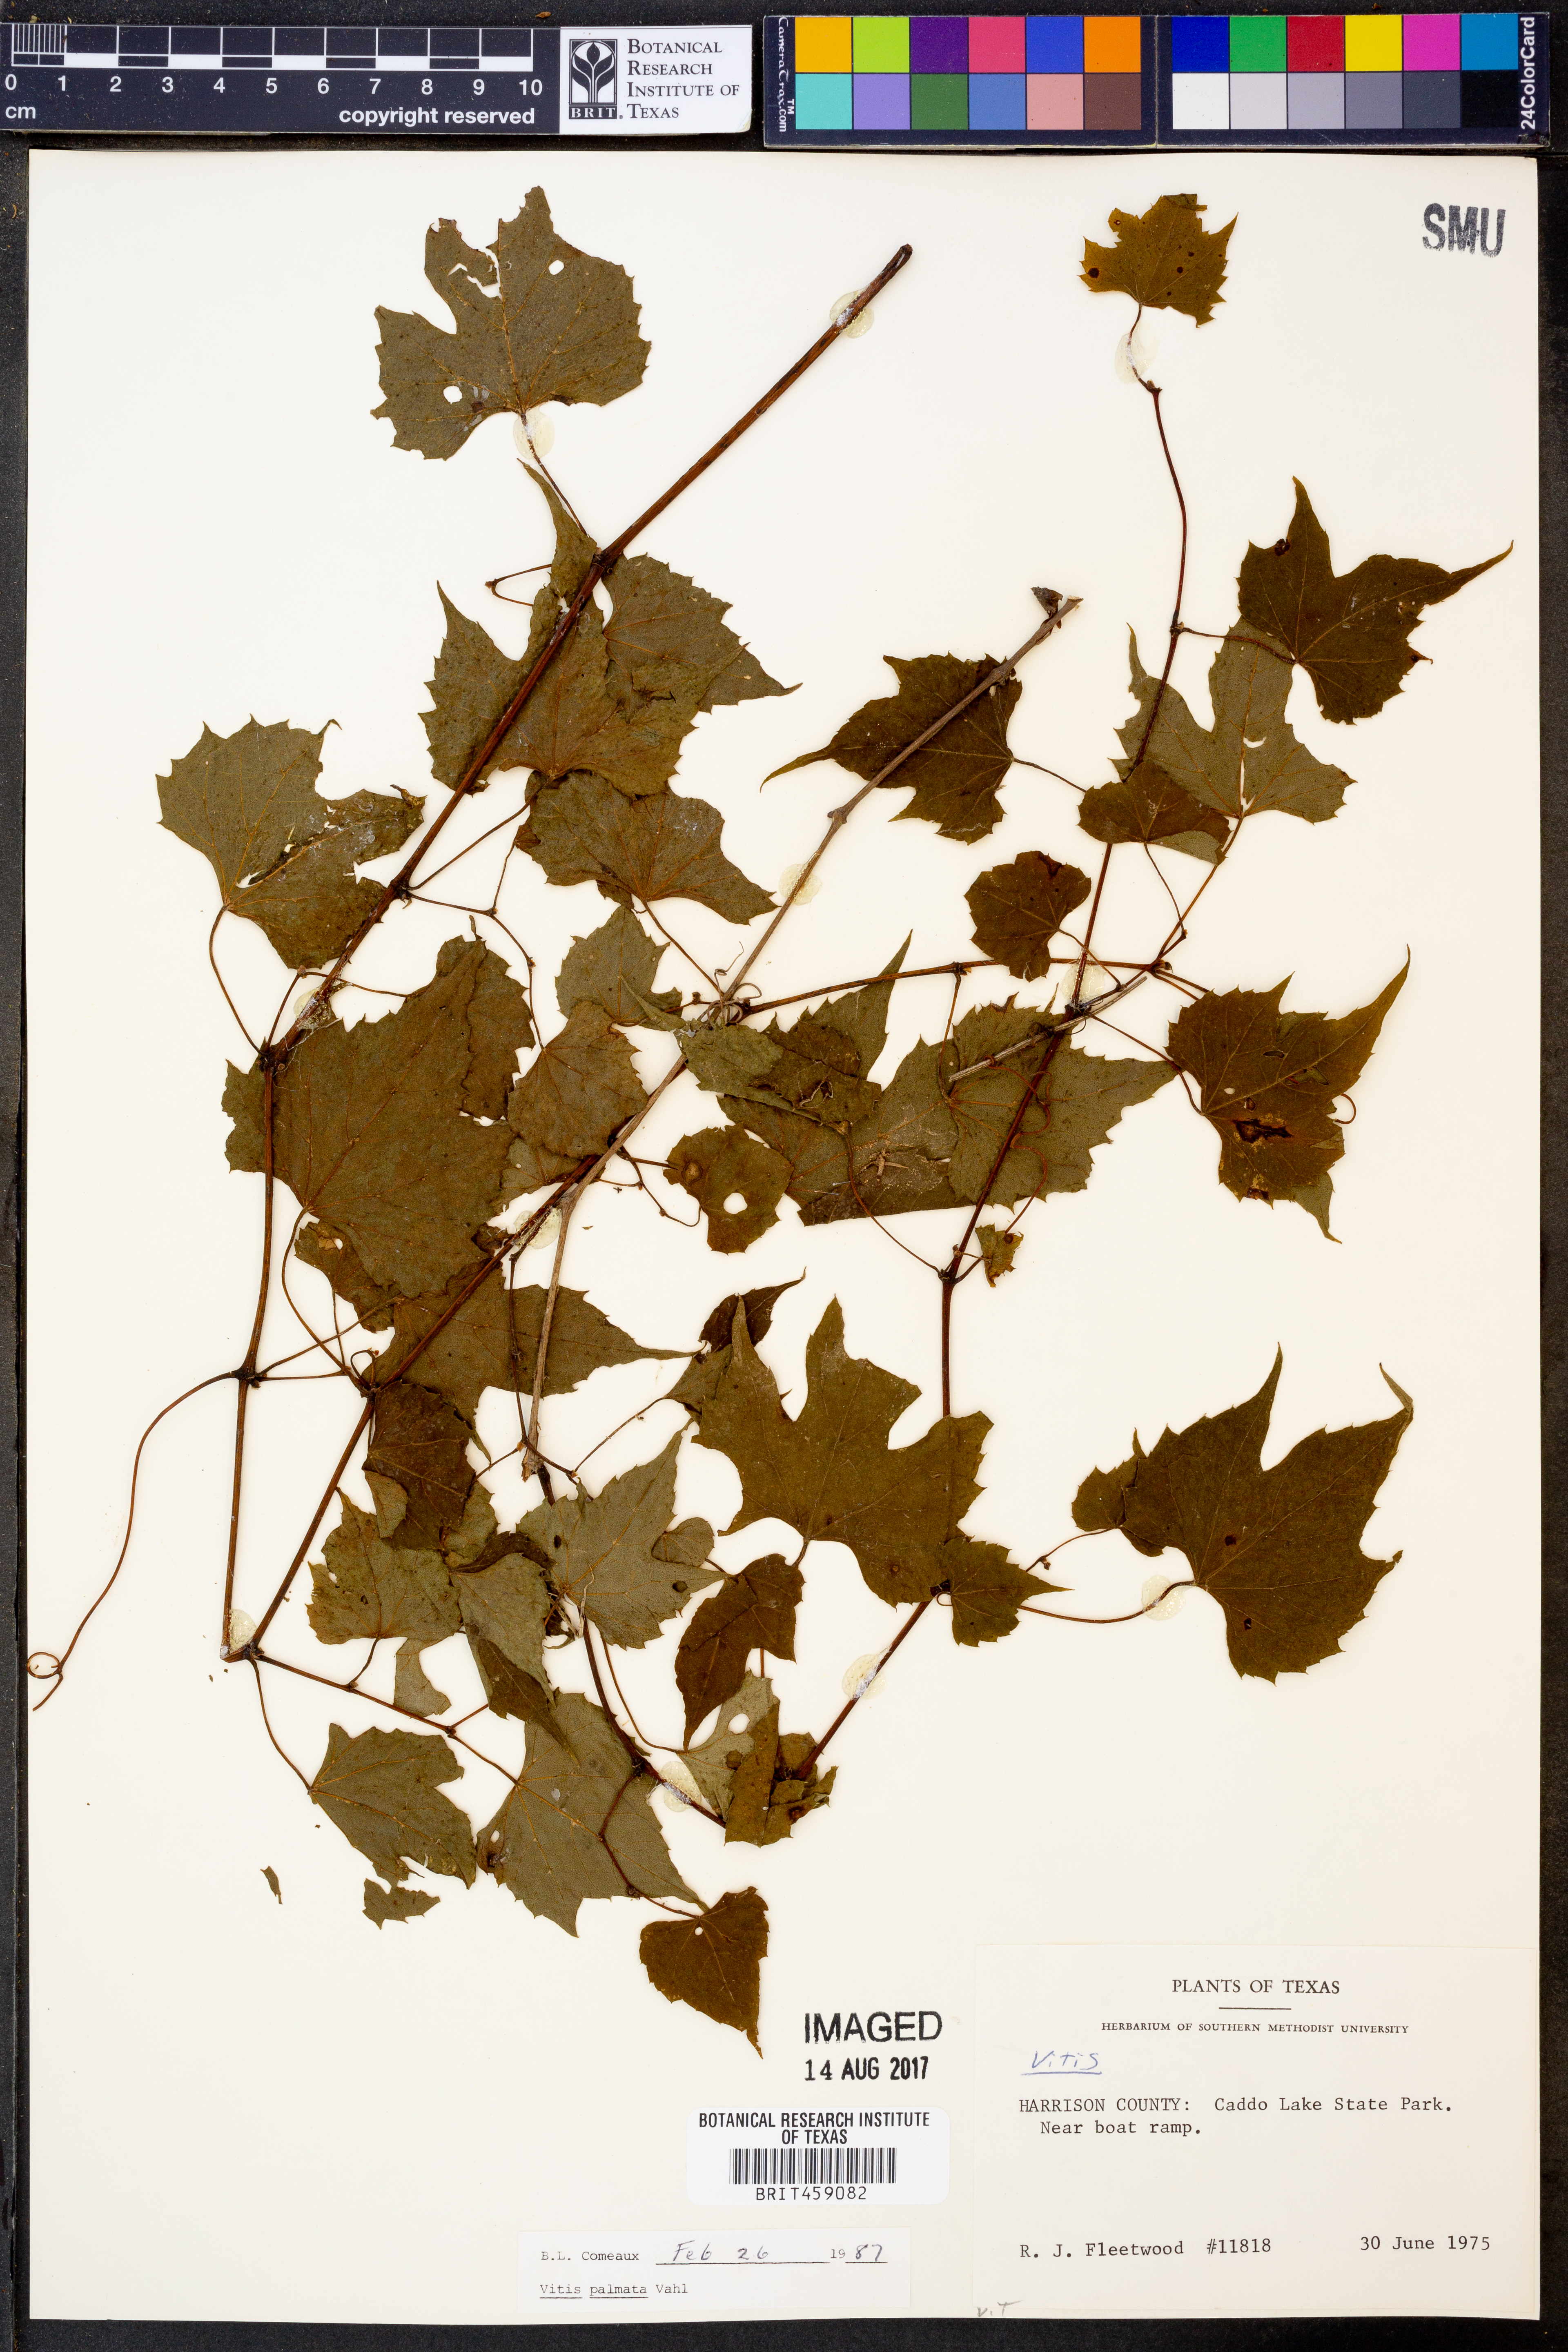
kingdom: Plantae
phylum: Tracheophyta
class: Magnoliopsida
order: Vitales
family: Vitaceae
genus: Vitis
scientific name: Vitis palmata
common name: Catbird grape
